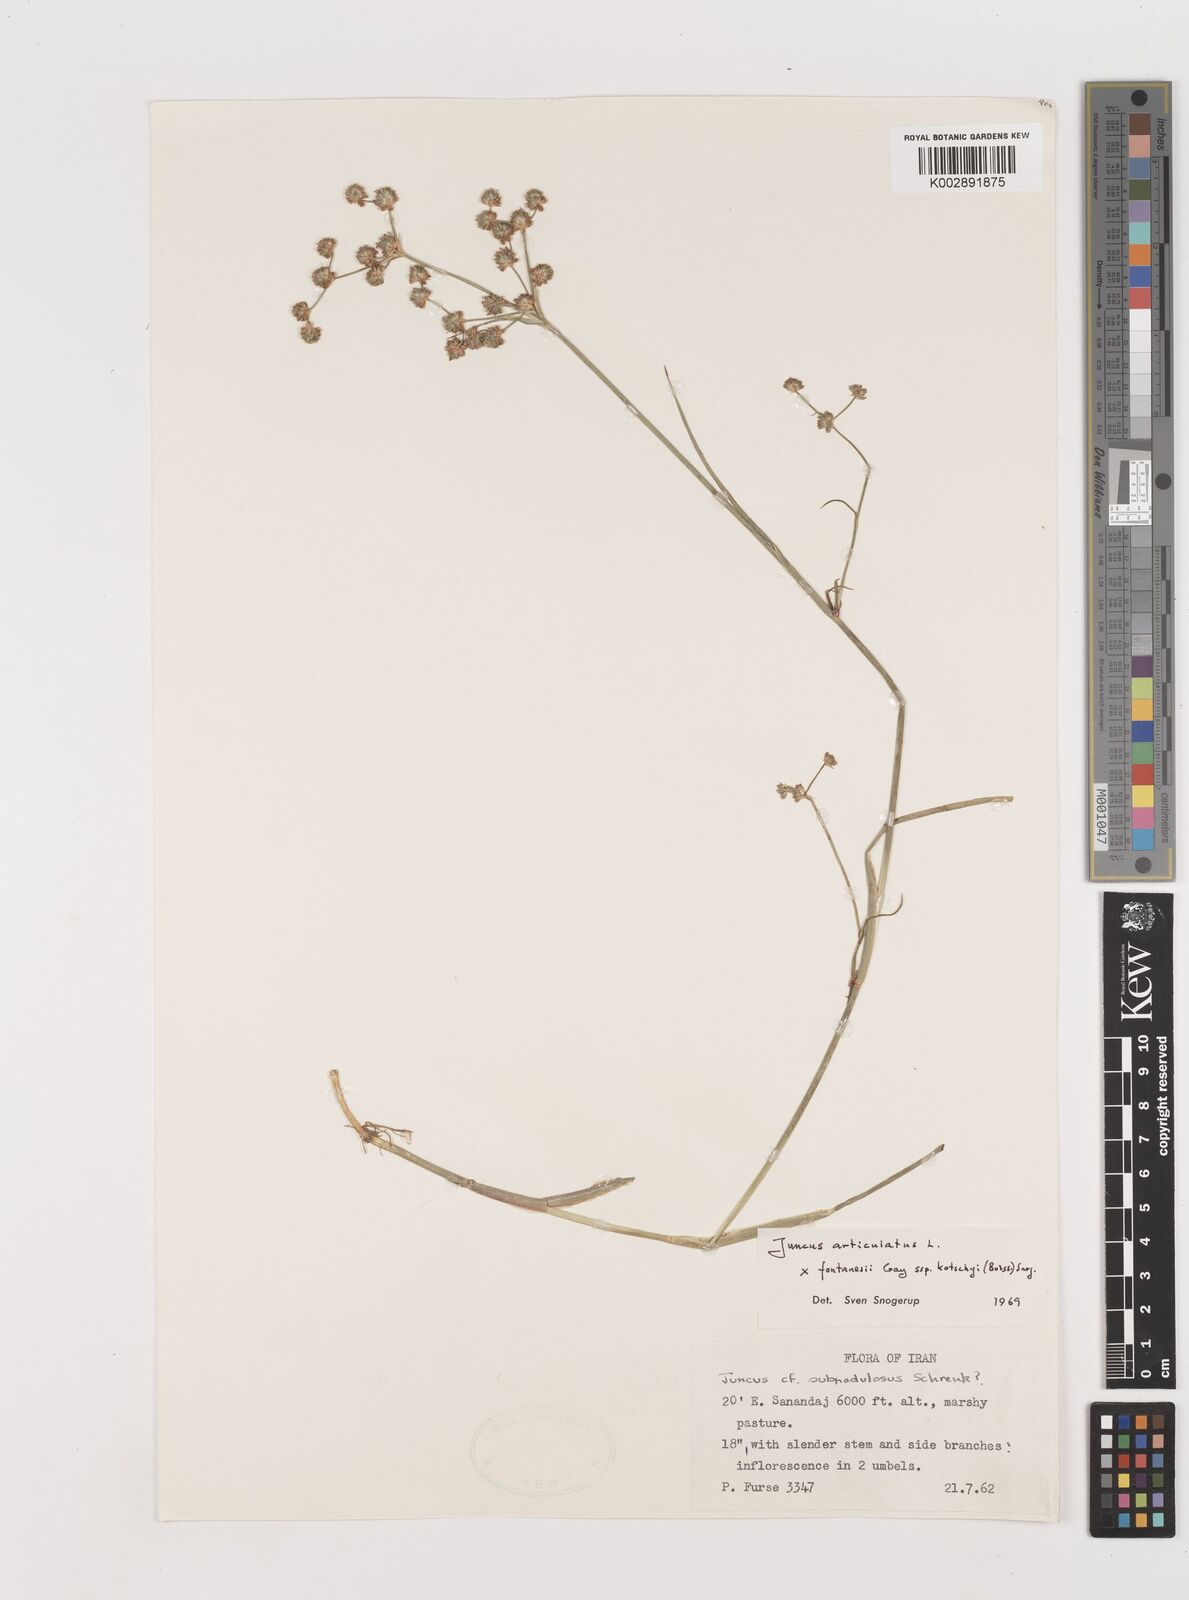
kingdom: Plantae
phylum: Tracheophyta
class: Liliopsida
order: Poales
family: Juncaceae
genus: Juncus
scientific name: Juncus articulatus
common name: Jointed rush
